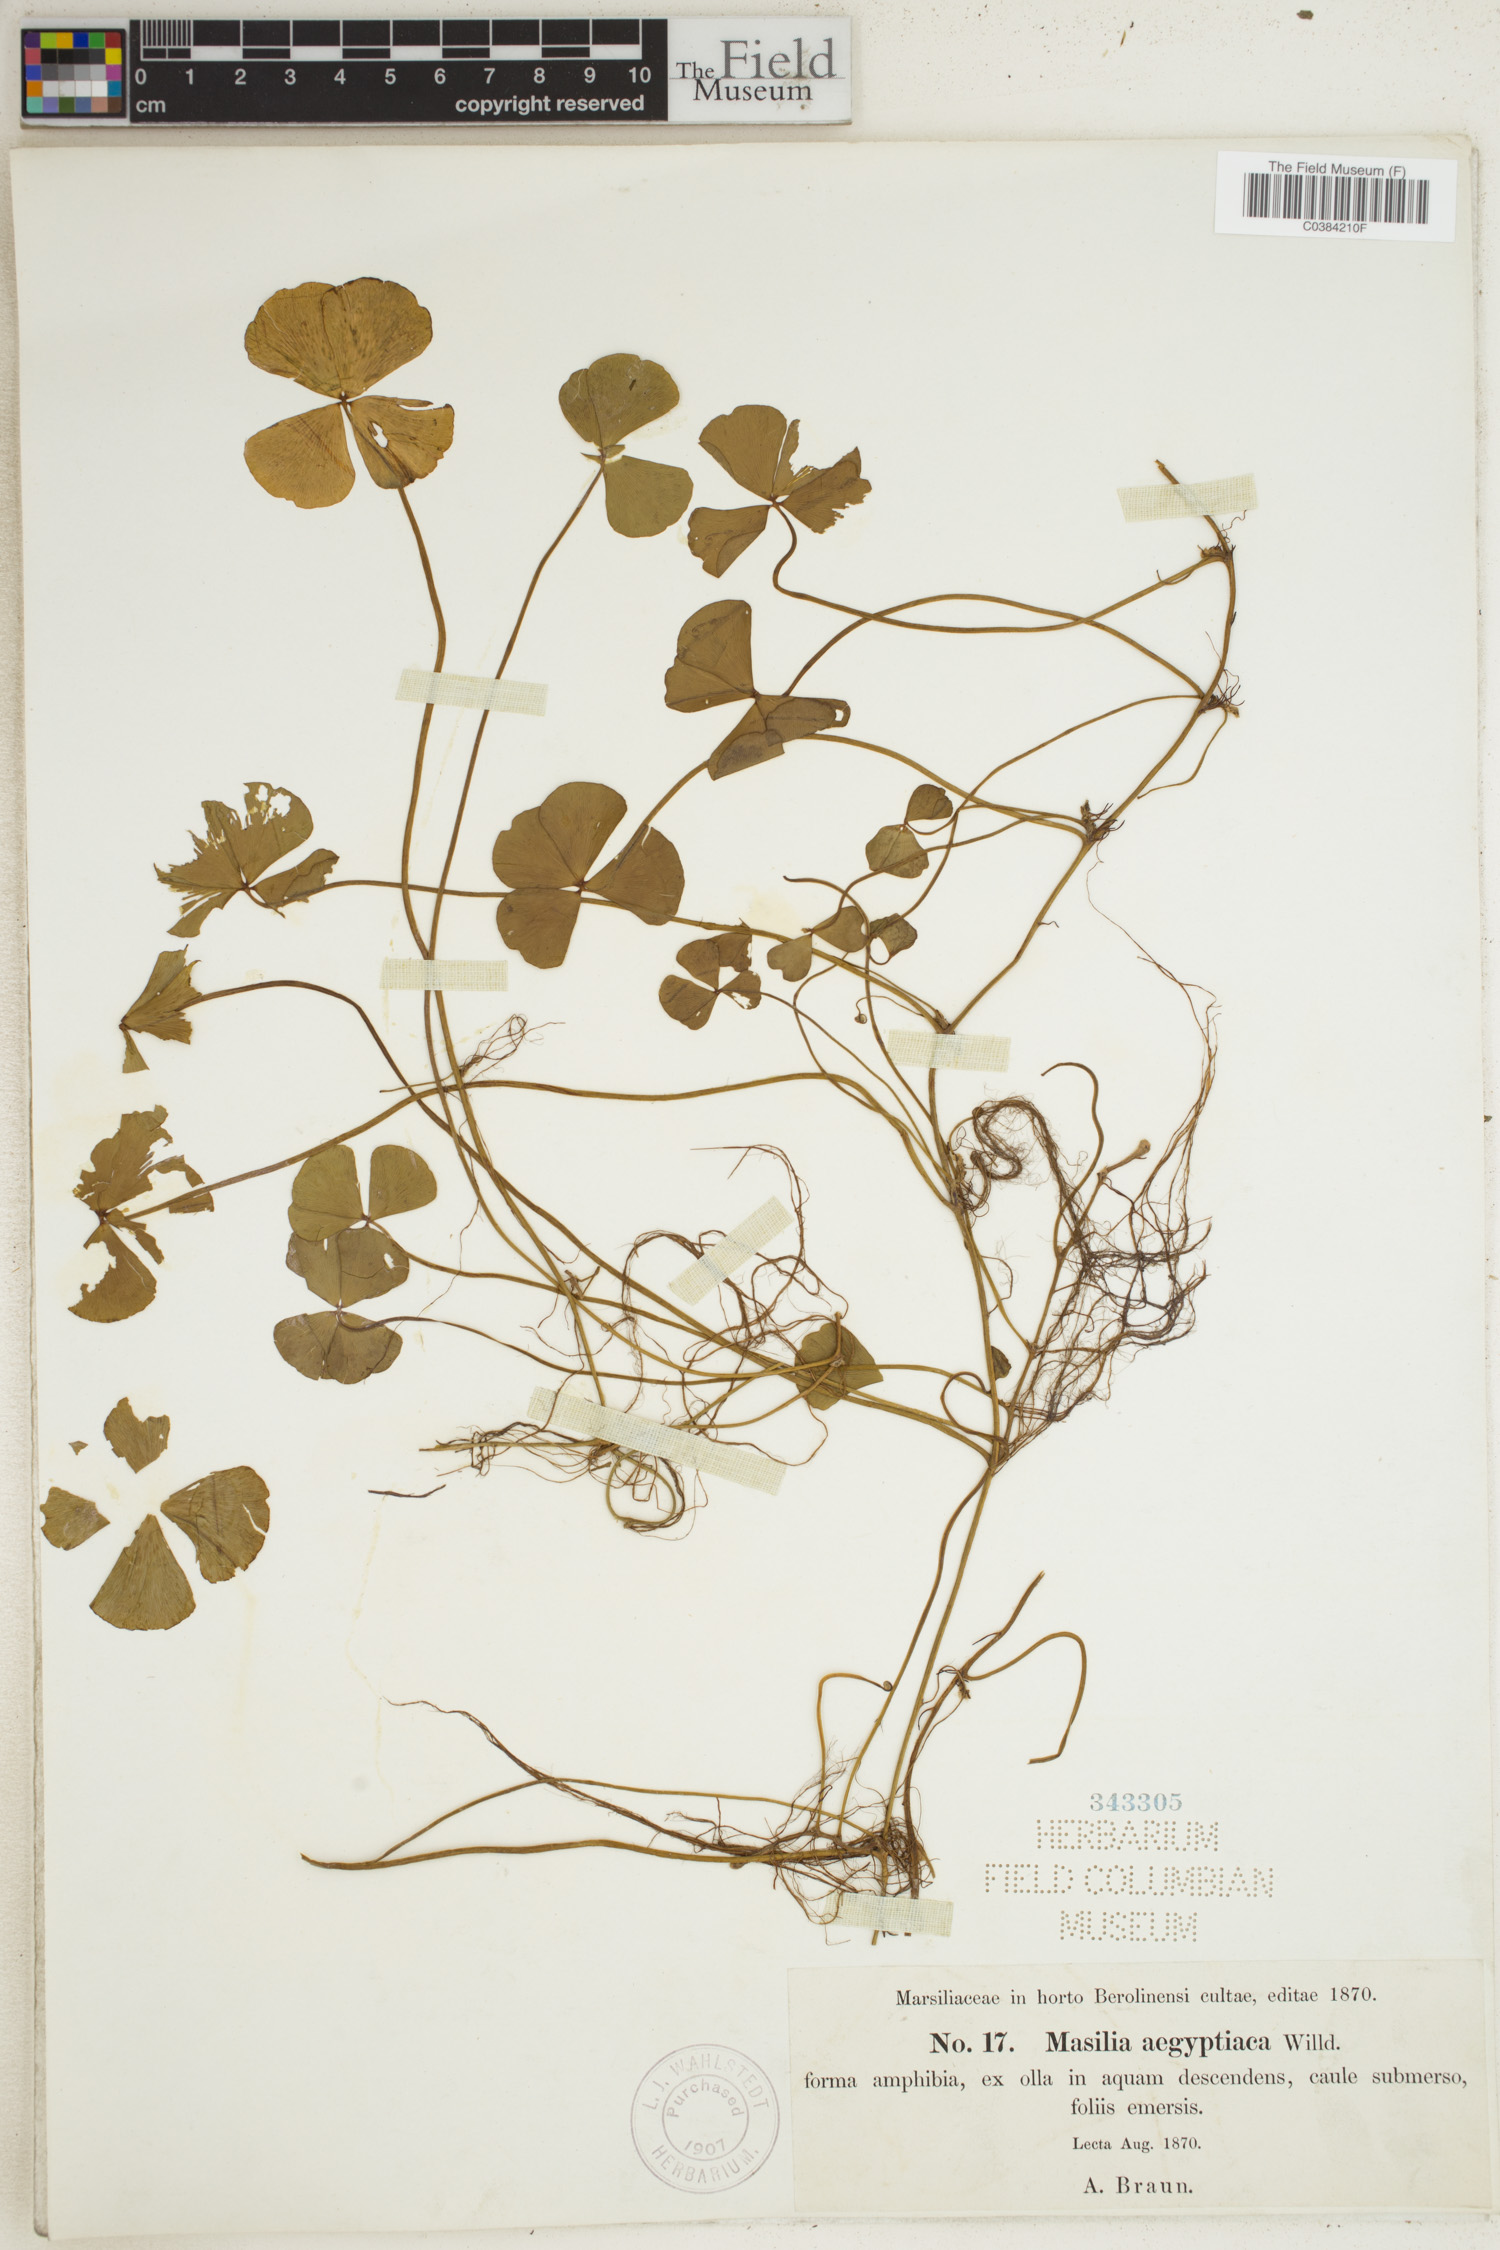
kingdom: Plantae
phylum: Tracheophyta
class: Polypodiopsida
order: Salviniales
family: Marsileaceae
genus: Marsilea
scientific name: Marsilea aegyptica
